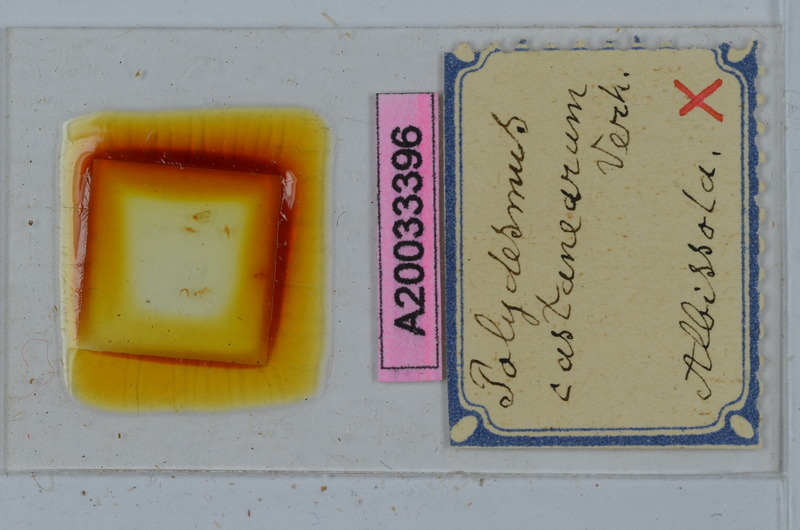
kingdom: Animalia
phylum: Arthropoda
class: Diplopoda
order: Polydesmida
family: Xystodesmidae
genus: Nannaria
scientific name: Nannaria castanea
